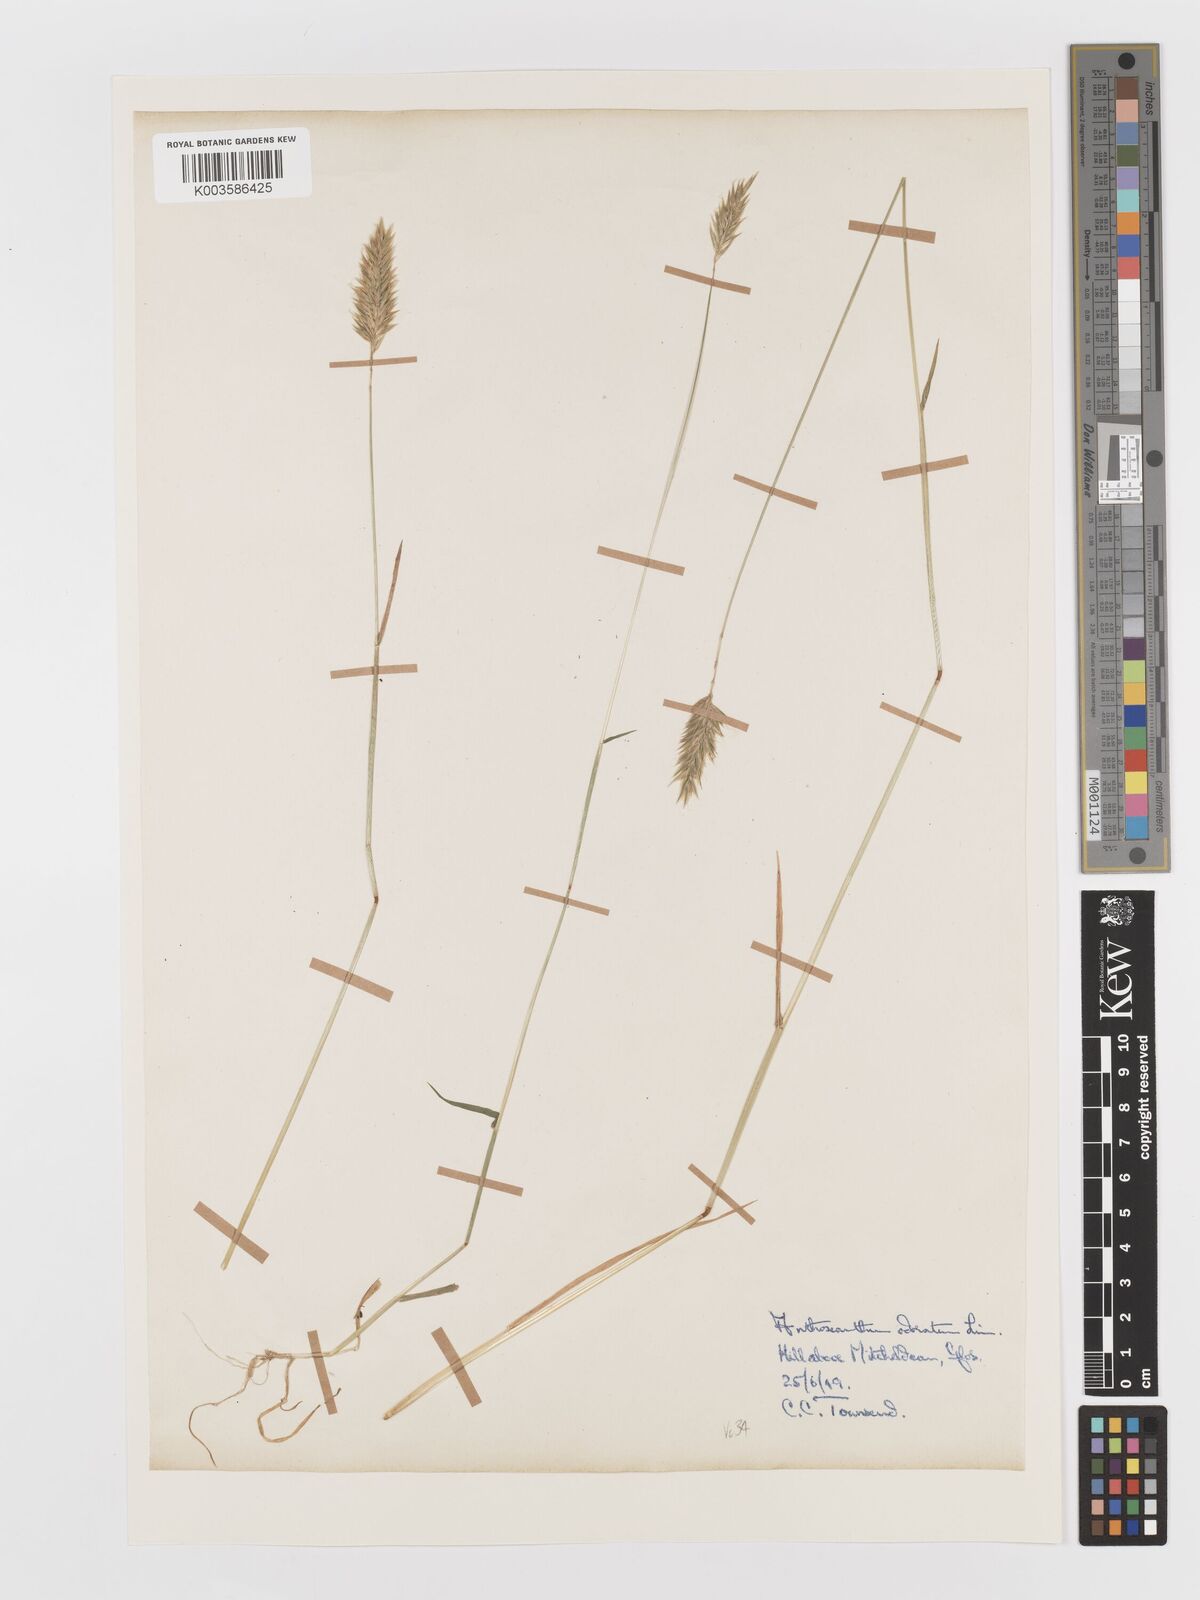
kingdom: Plantae
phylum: Tracheophyta
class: Liliopsida
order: Poales
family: Poaceae
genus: Anthoxanthum
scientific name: Anthoxanthum odoratum
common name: Sweet vernalgrass
